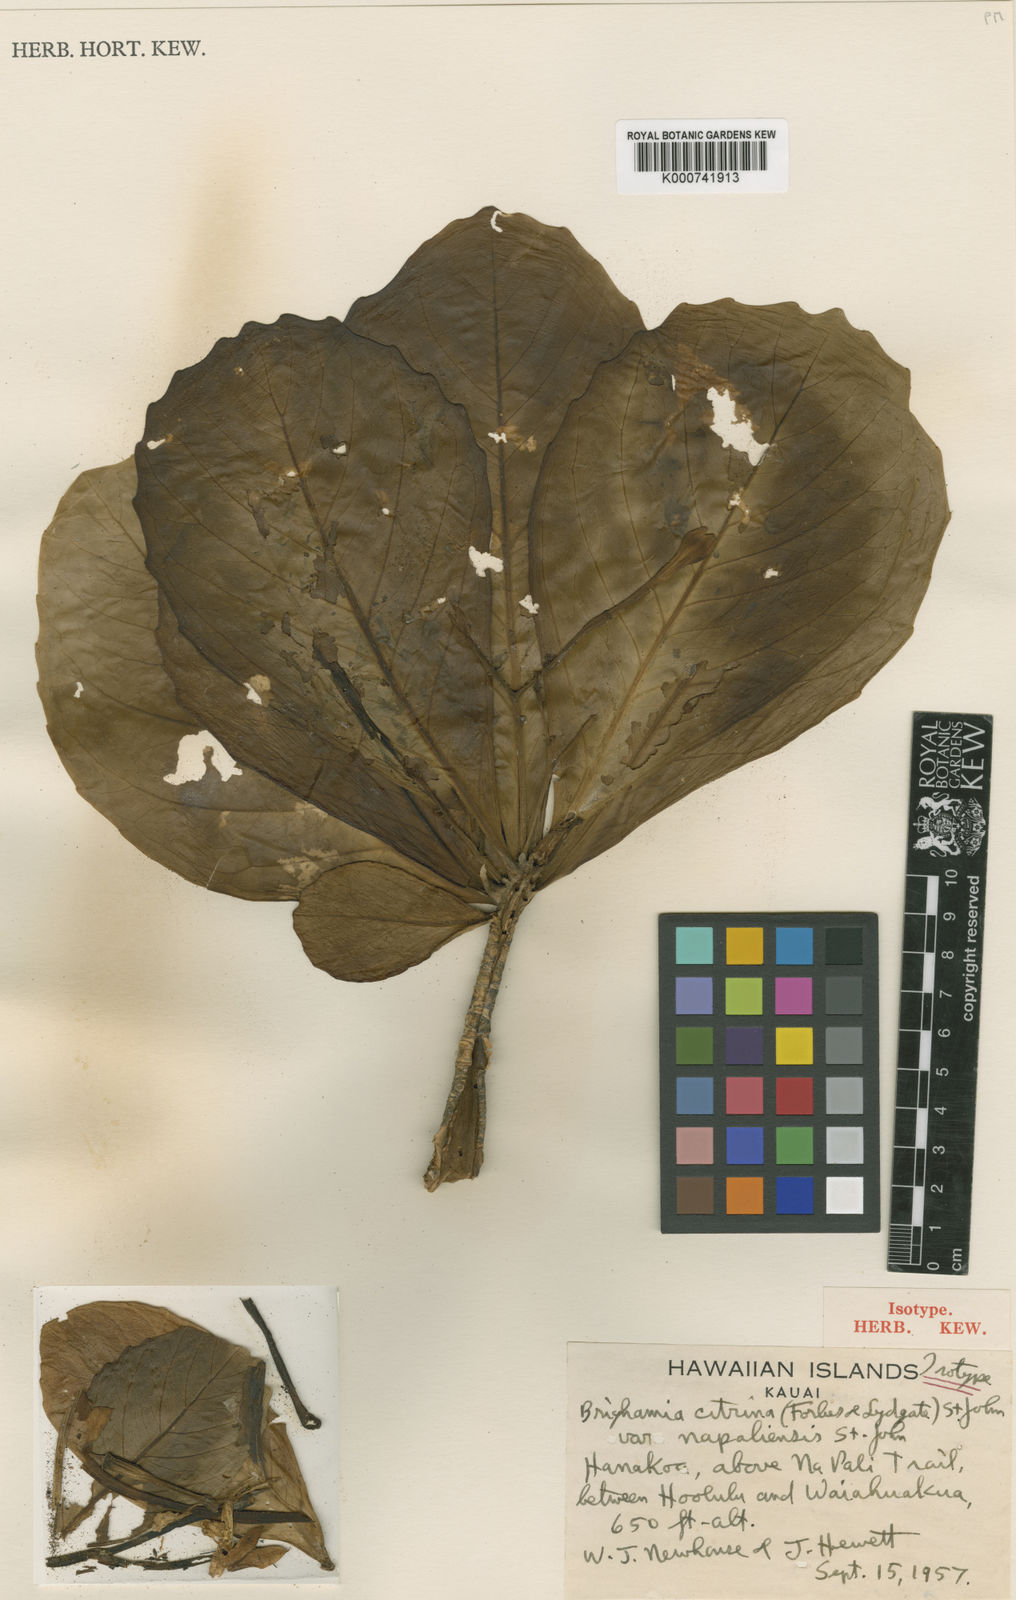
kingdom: Plantae
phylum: Tracheophyta
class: Magnoliopsida
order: Asterales
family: Campanulaceae
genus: Brighamia
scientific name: Brighamia insignis
